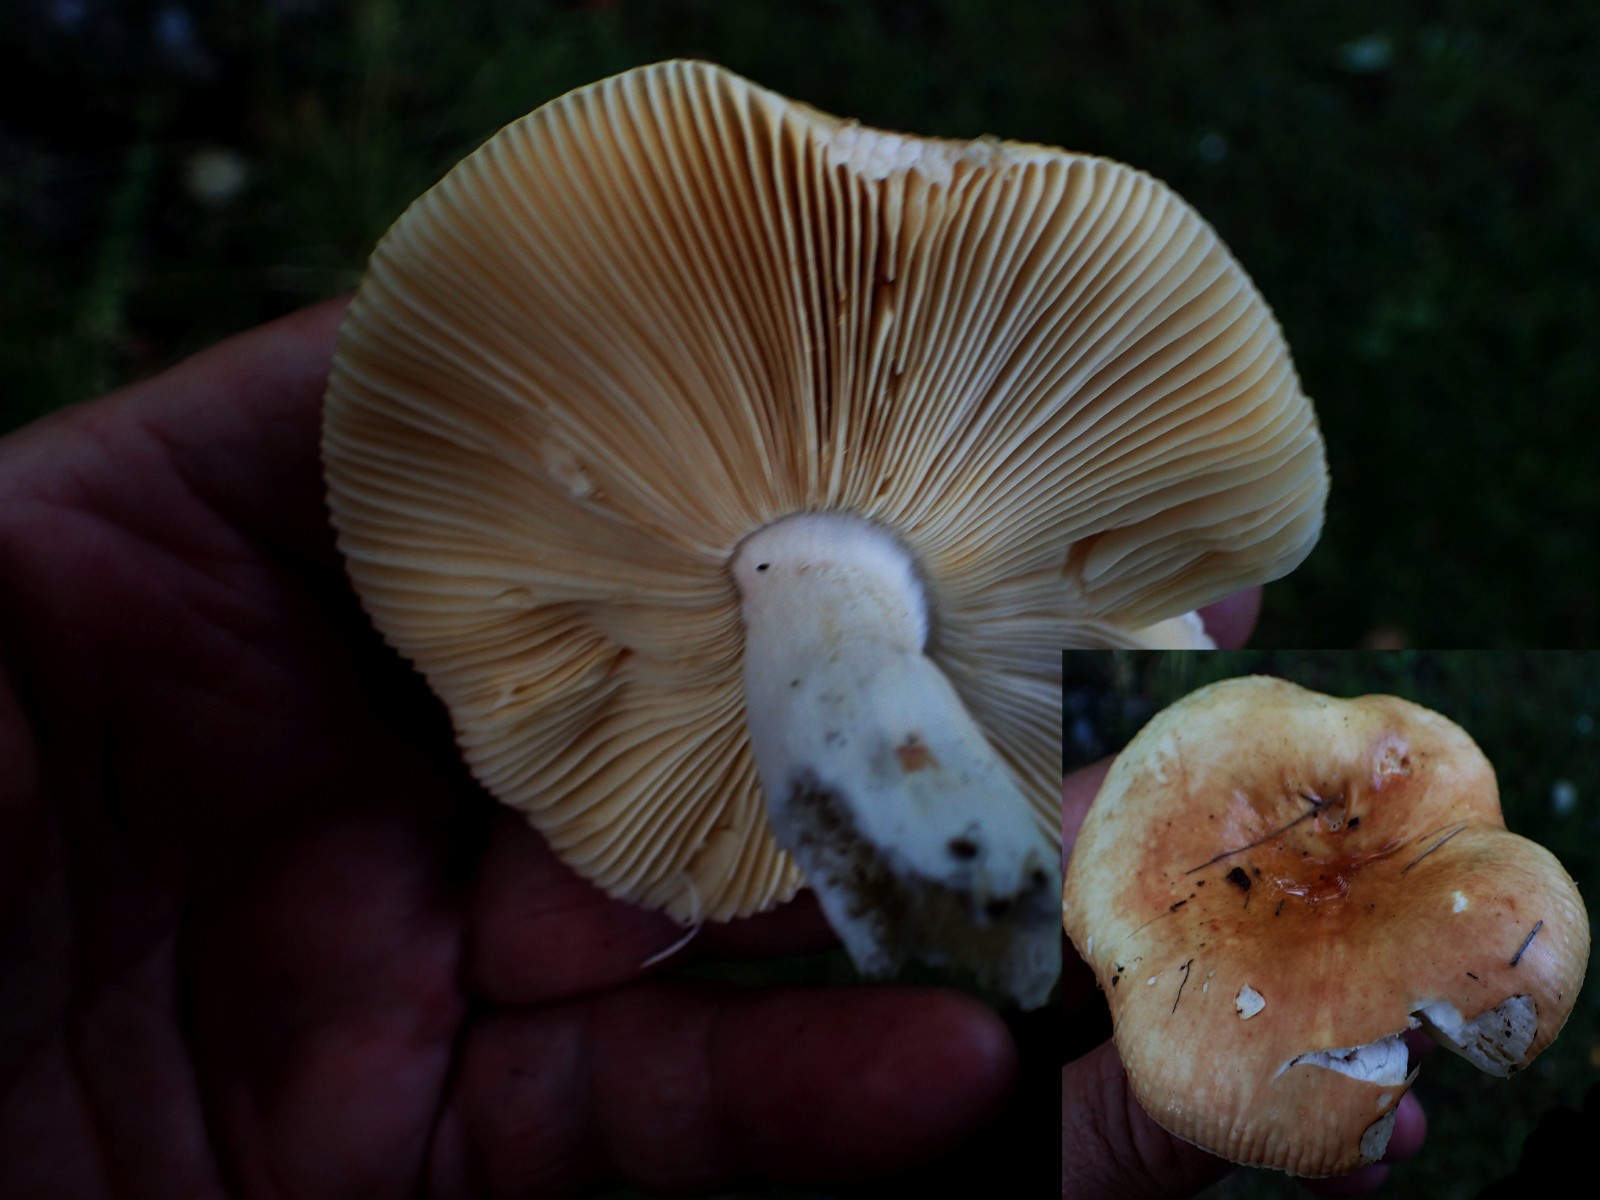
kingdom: Fungi
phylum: Basidiomycota
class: Agaricomycetes
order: Russulales
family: Russulaceae
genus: Russula
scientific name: Russula recondita
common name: mild kam-skørhat
